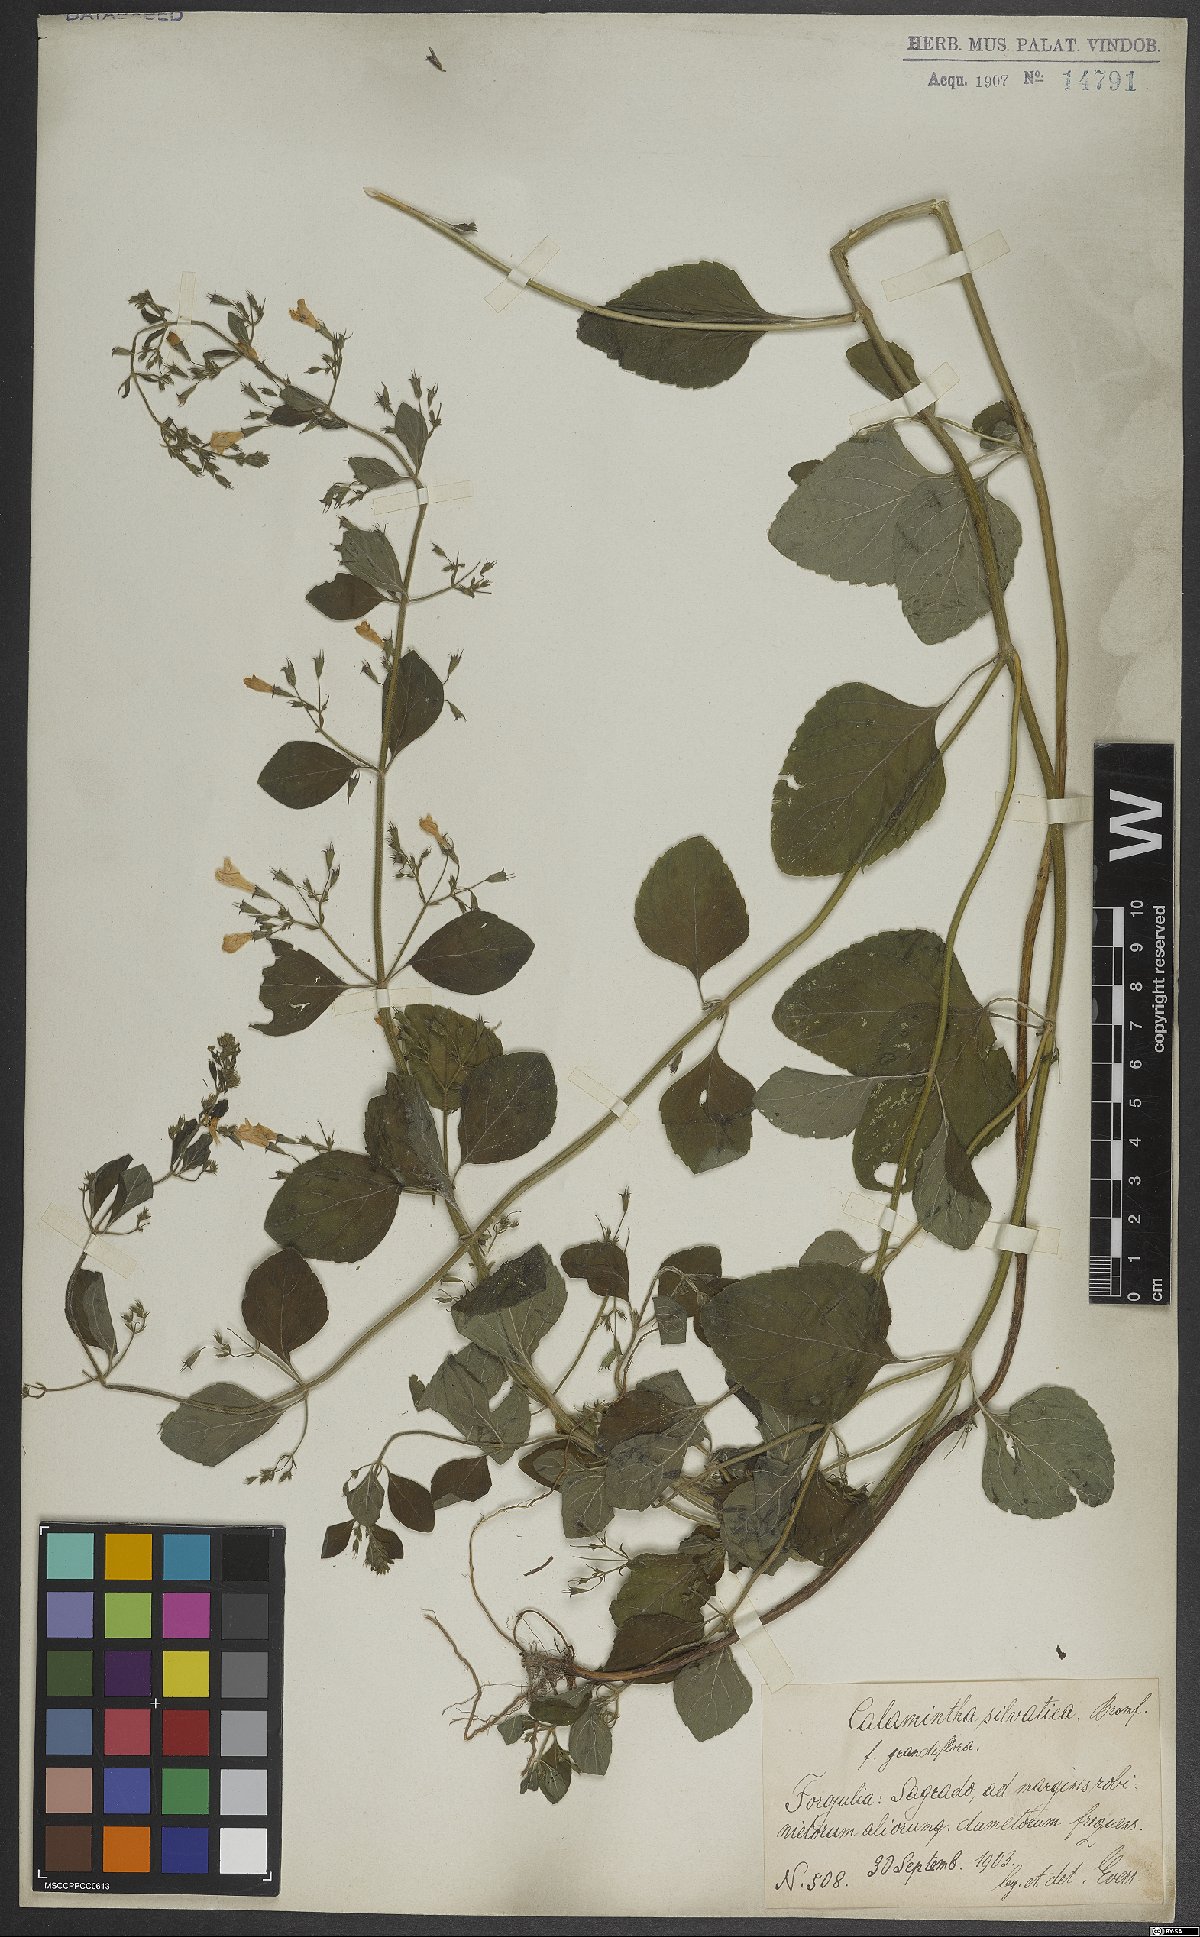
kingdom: Plantae
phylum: Tracheophyta
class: Magnoliopsida
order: Lamiales
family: Lamiaceae
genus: Clinopodium
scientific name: Clinopodium menthifolium
